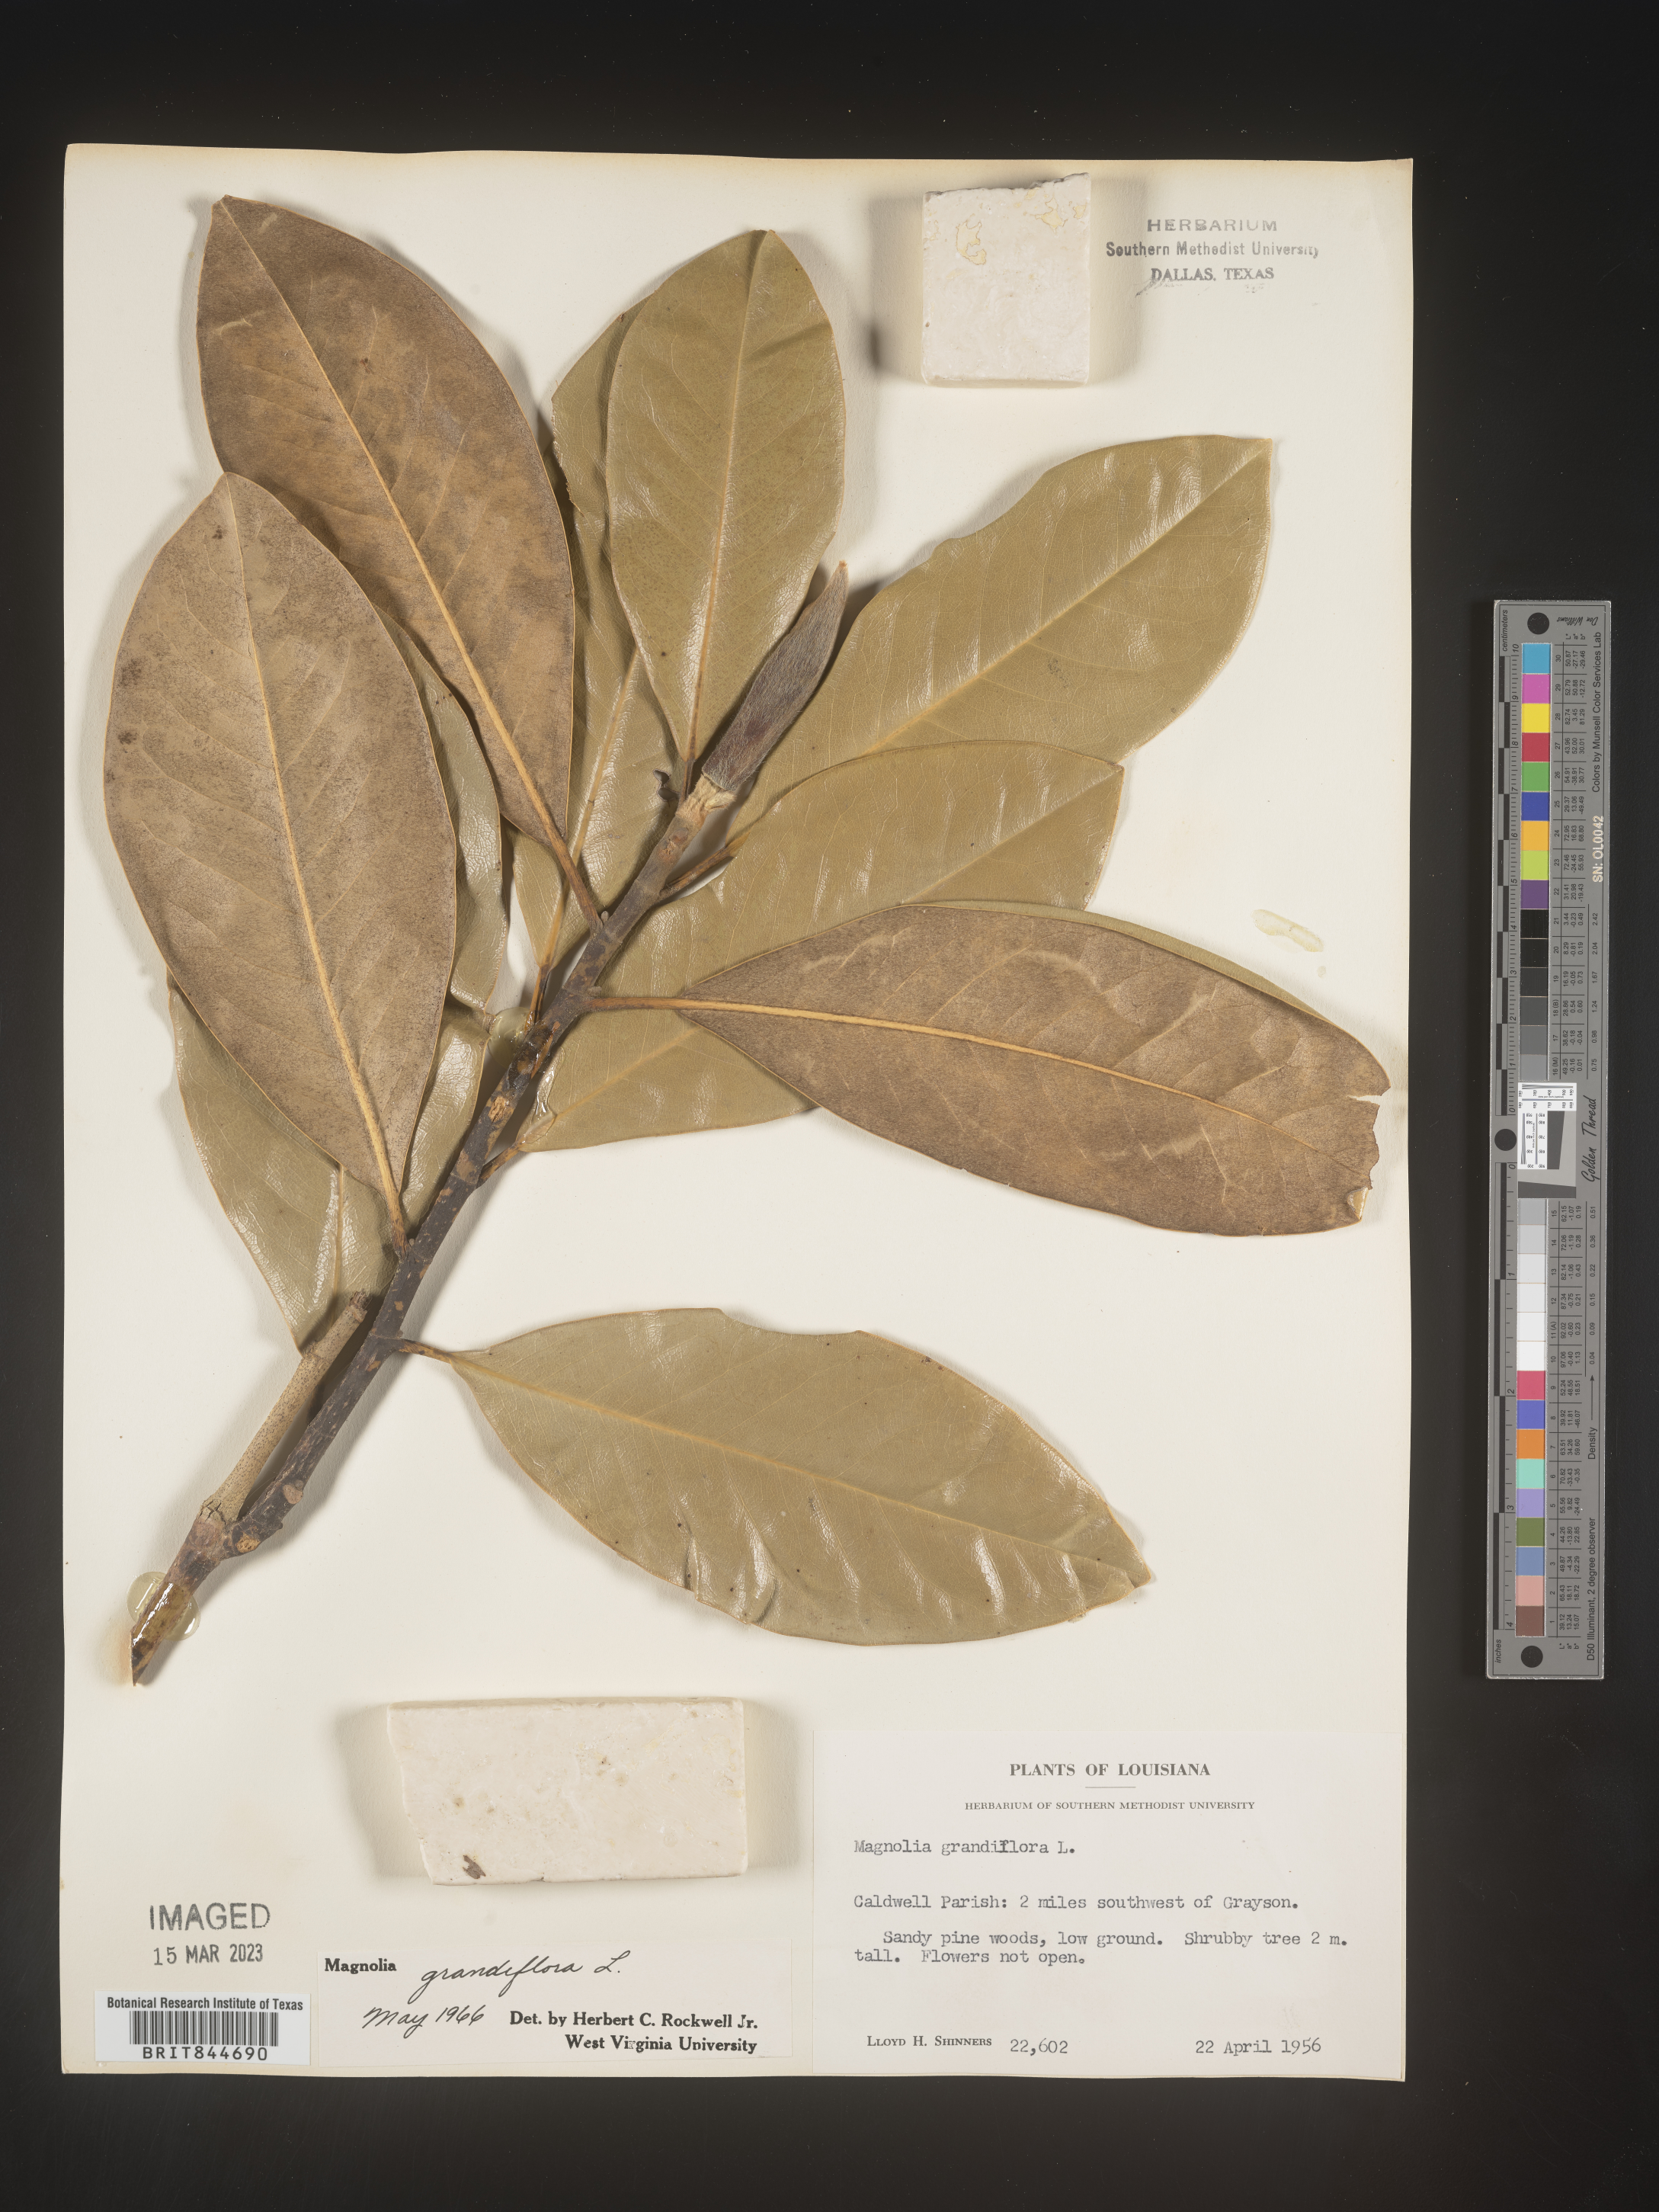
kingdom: Plantae
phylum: Tracheophyta
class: Magnoliopsida
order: Magnoliales
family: Magnoliaceae
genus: Magnolia
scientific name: Magnolia grandiflora
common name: Southern magnolia
